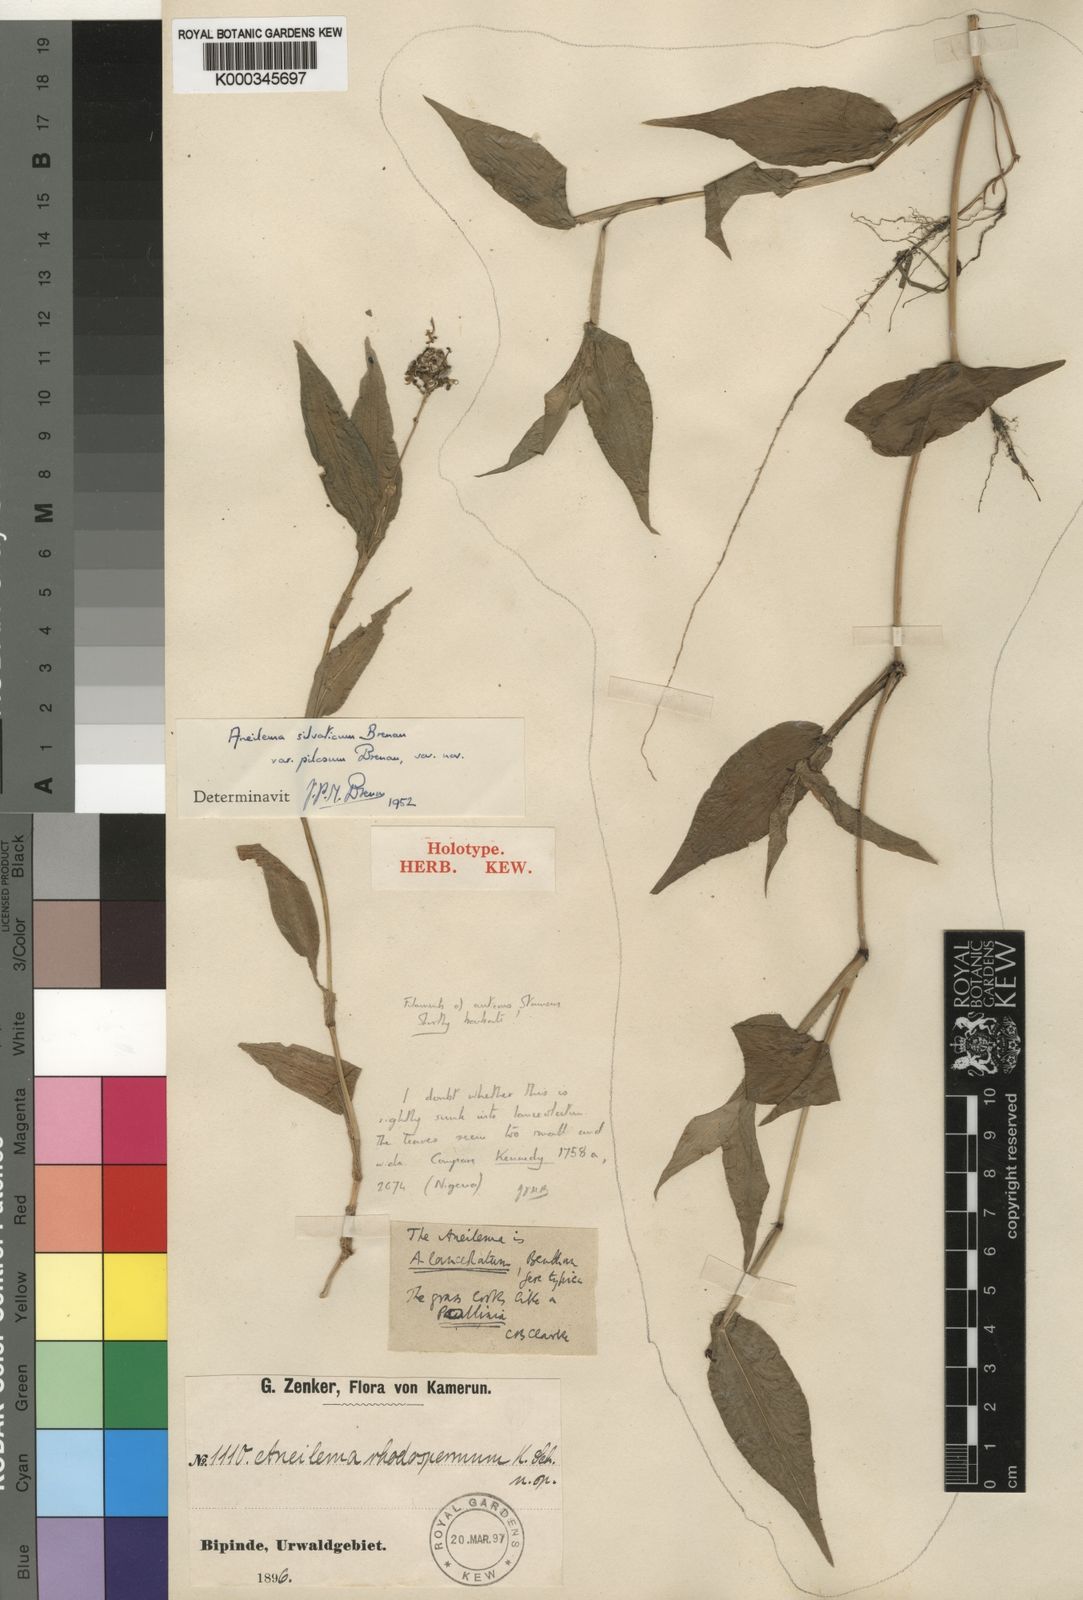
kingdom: Plantae
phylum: Tracheophyta
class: Liliopsida
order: Commelinales
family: Commelinaceae
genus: Aneilema
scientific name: Aneilema silvaticum
